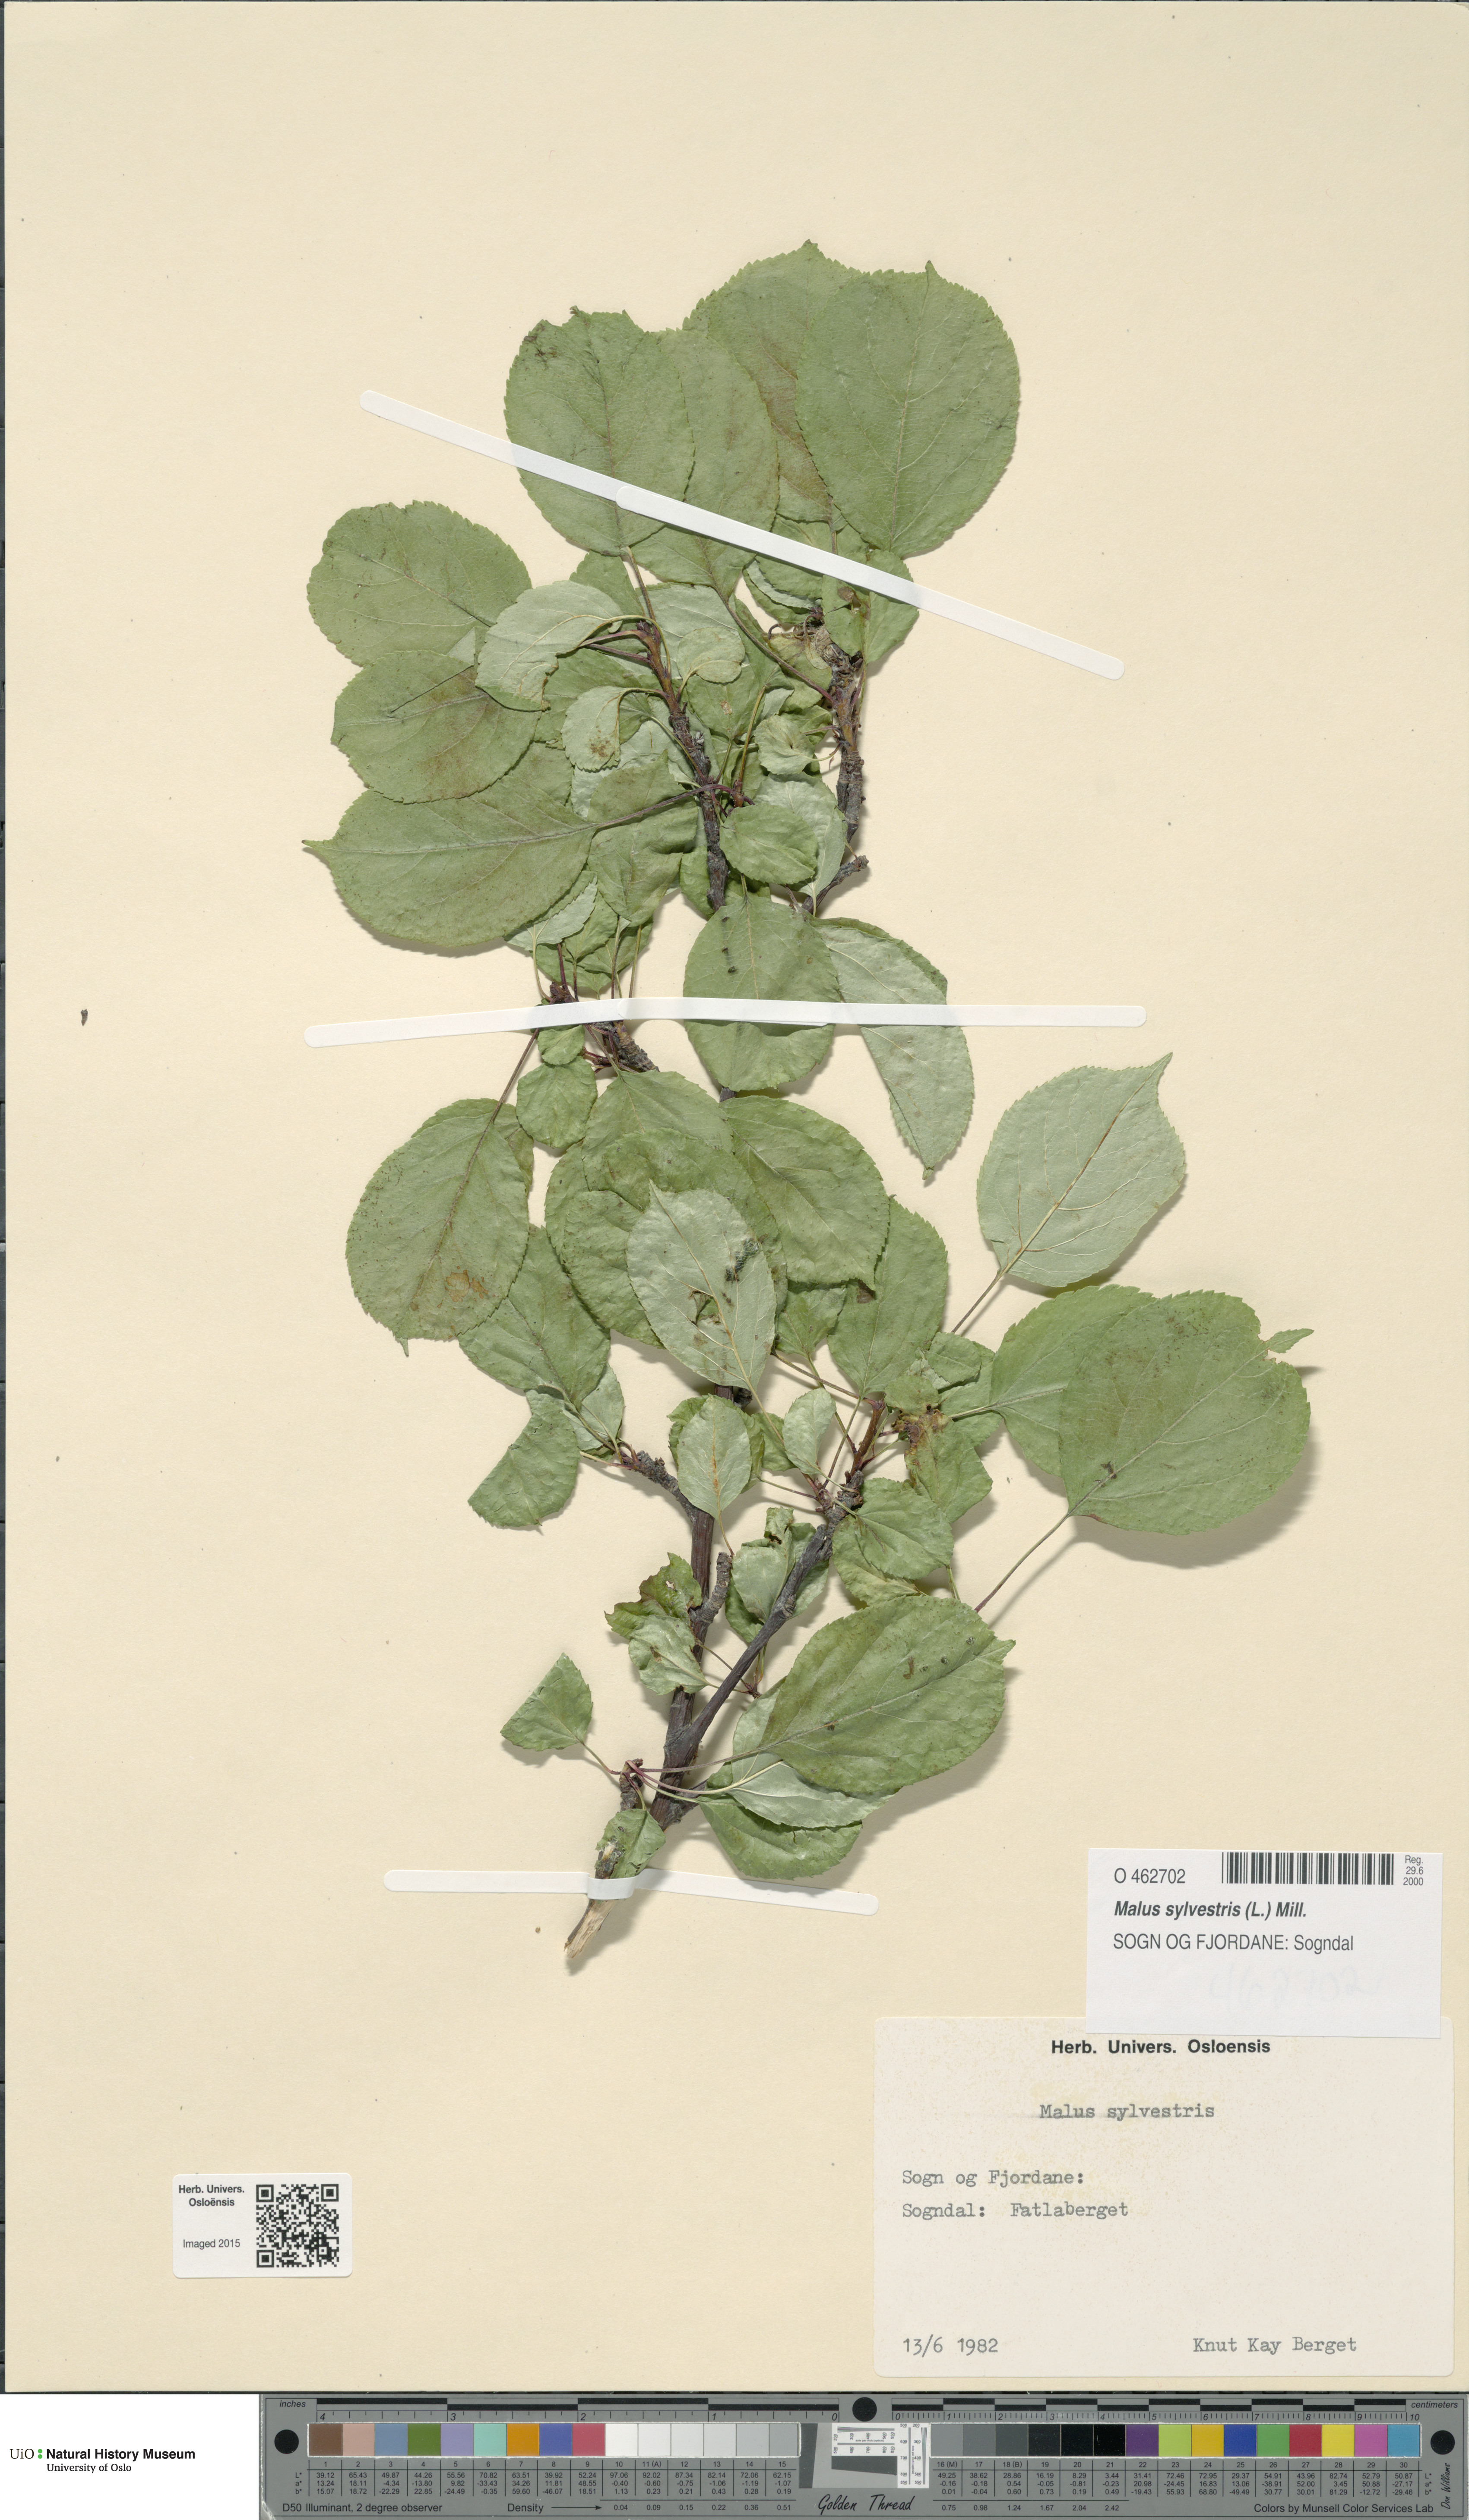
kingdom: Plantae
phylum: Tracheophyta
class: Magnoliopsida
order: Rosales
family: Rosaceae
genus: Malus
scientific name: Malus sylvestris
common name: Crab apple
